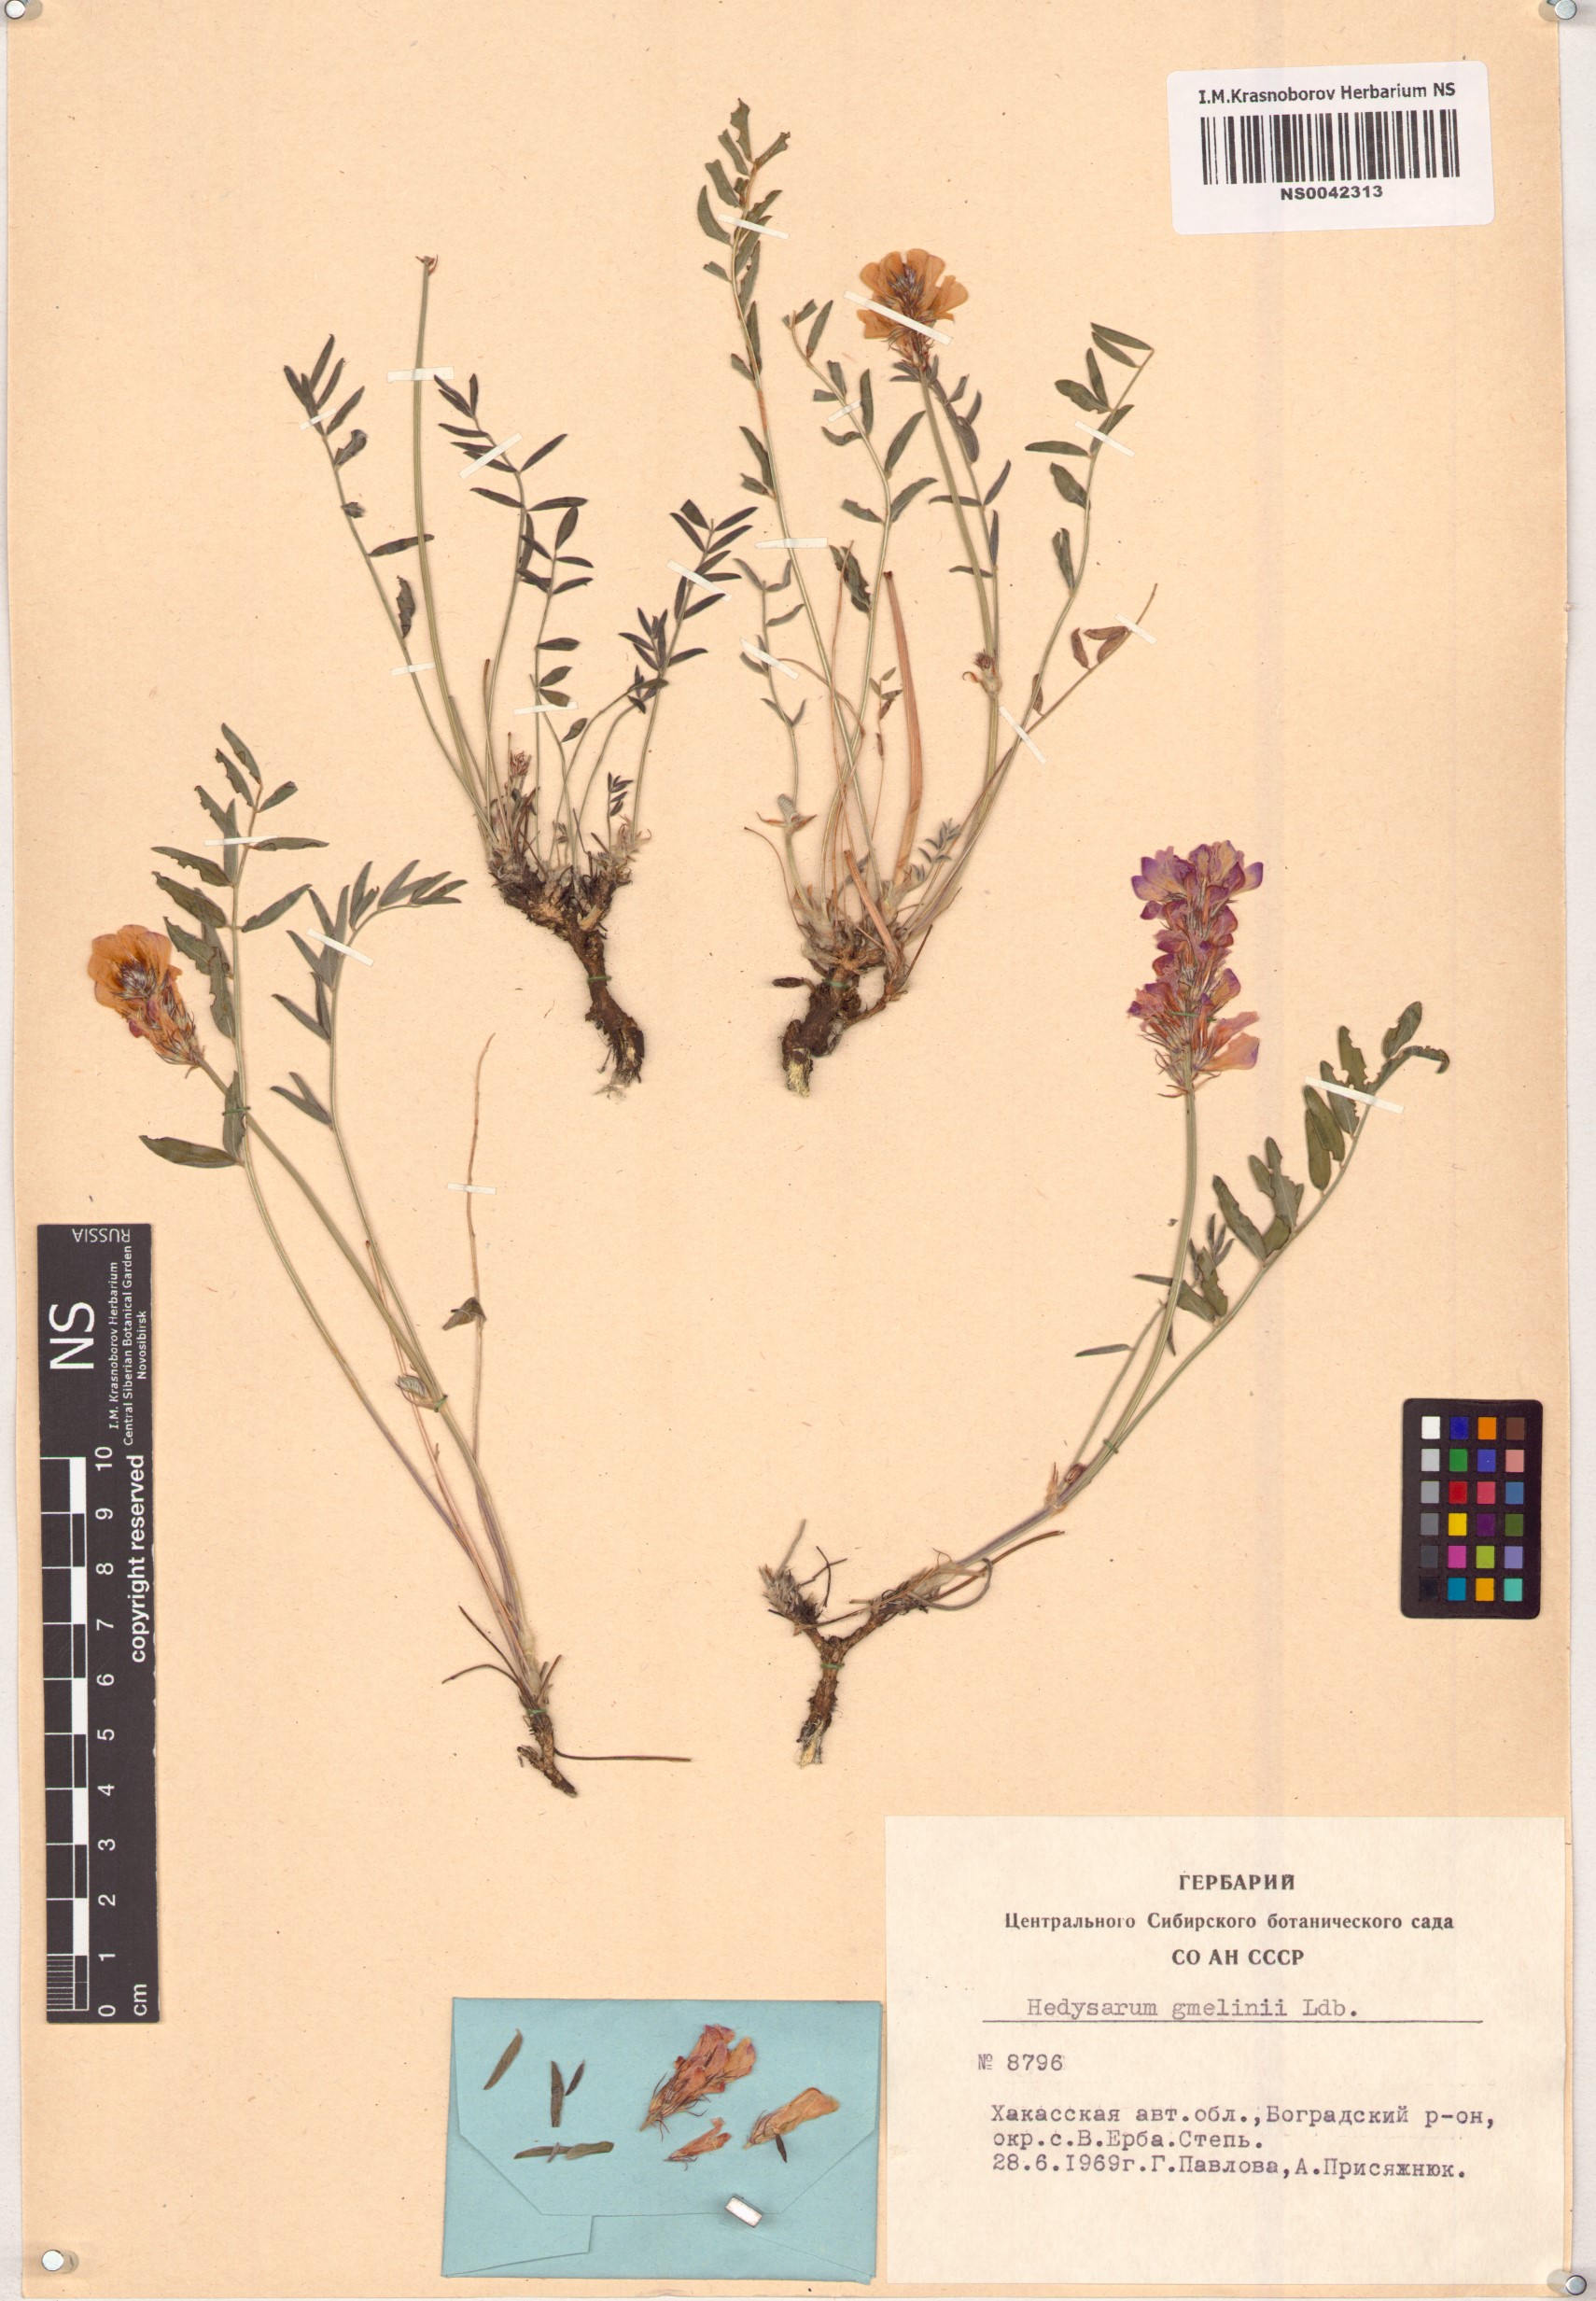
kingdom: Plantae
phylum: Tracheophyta
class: Magnoliopsida
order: Fabales
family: Fabaceae
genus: Hedysarum
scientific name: Hedysarum gmelinii
